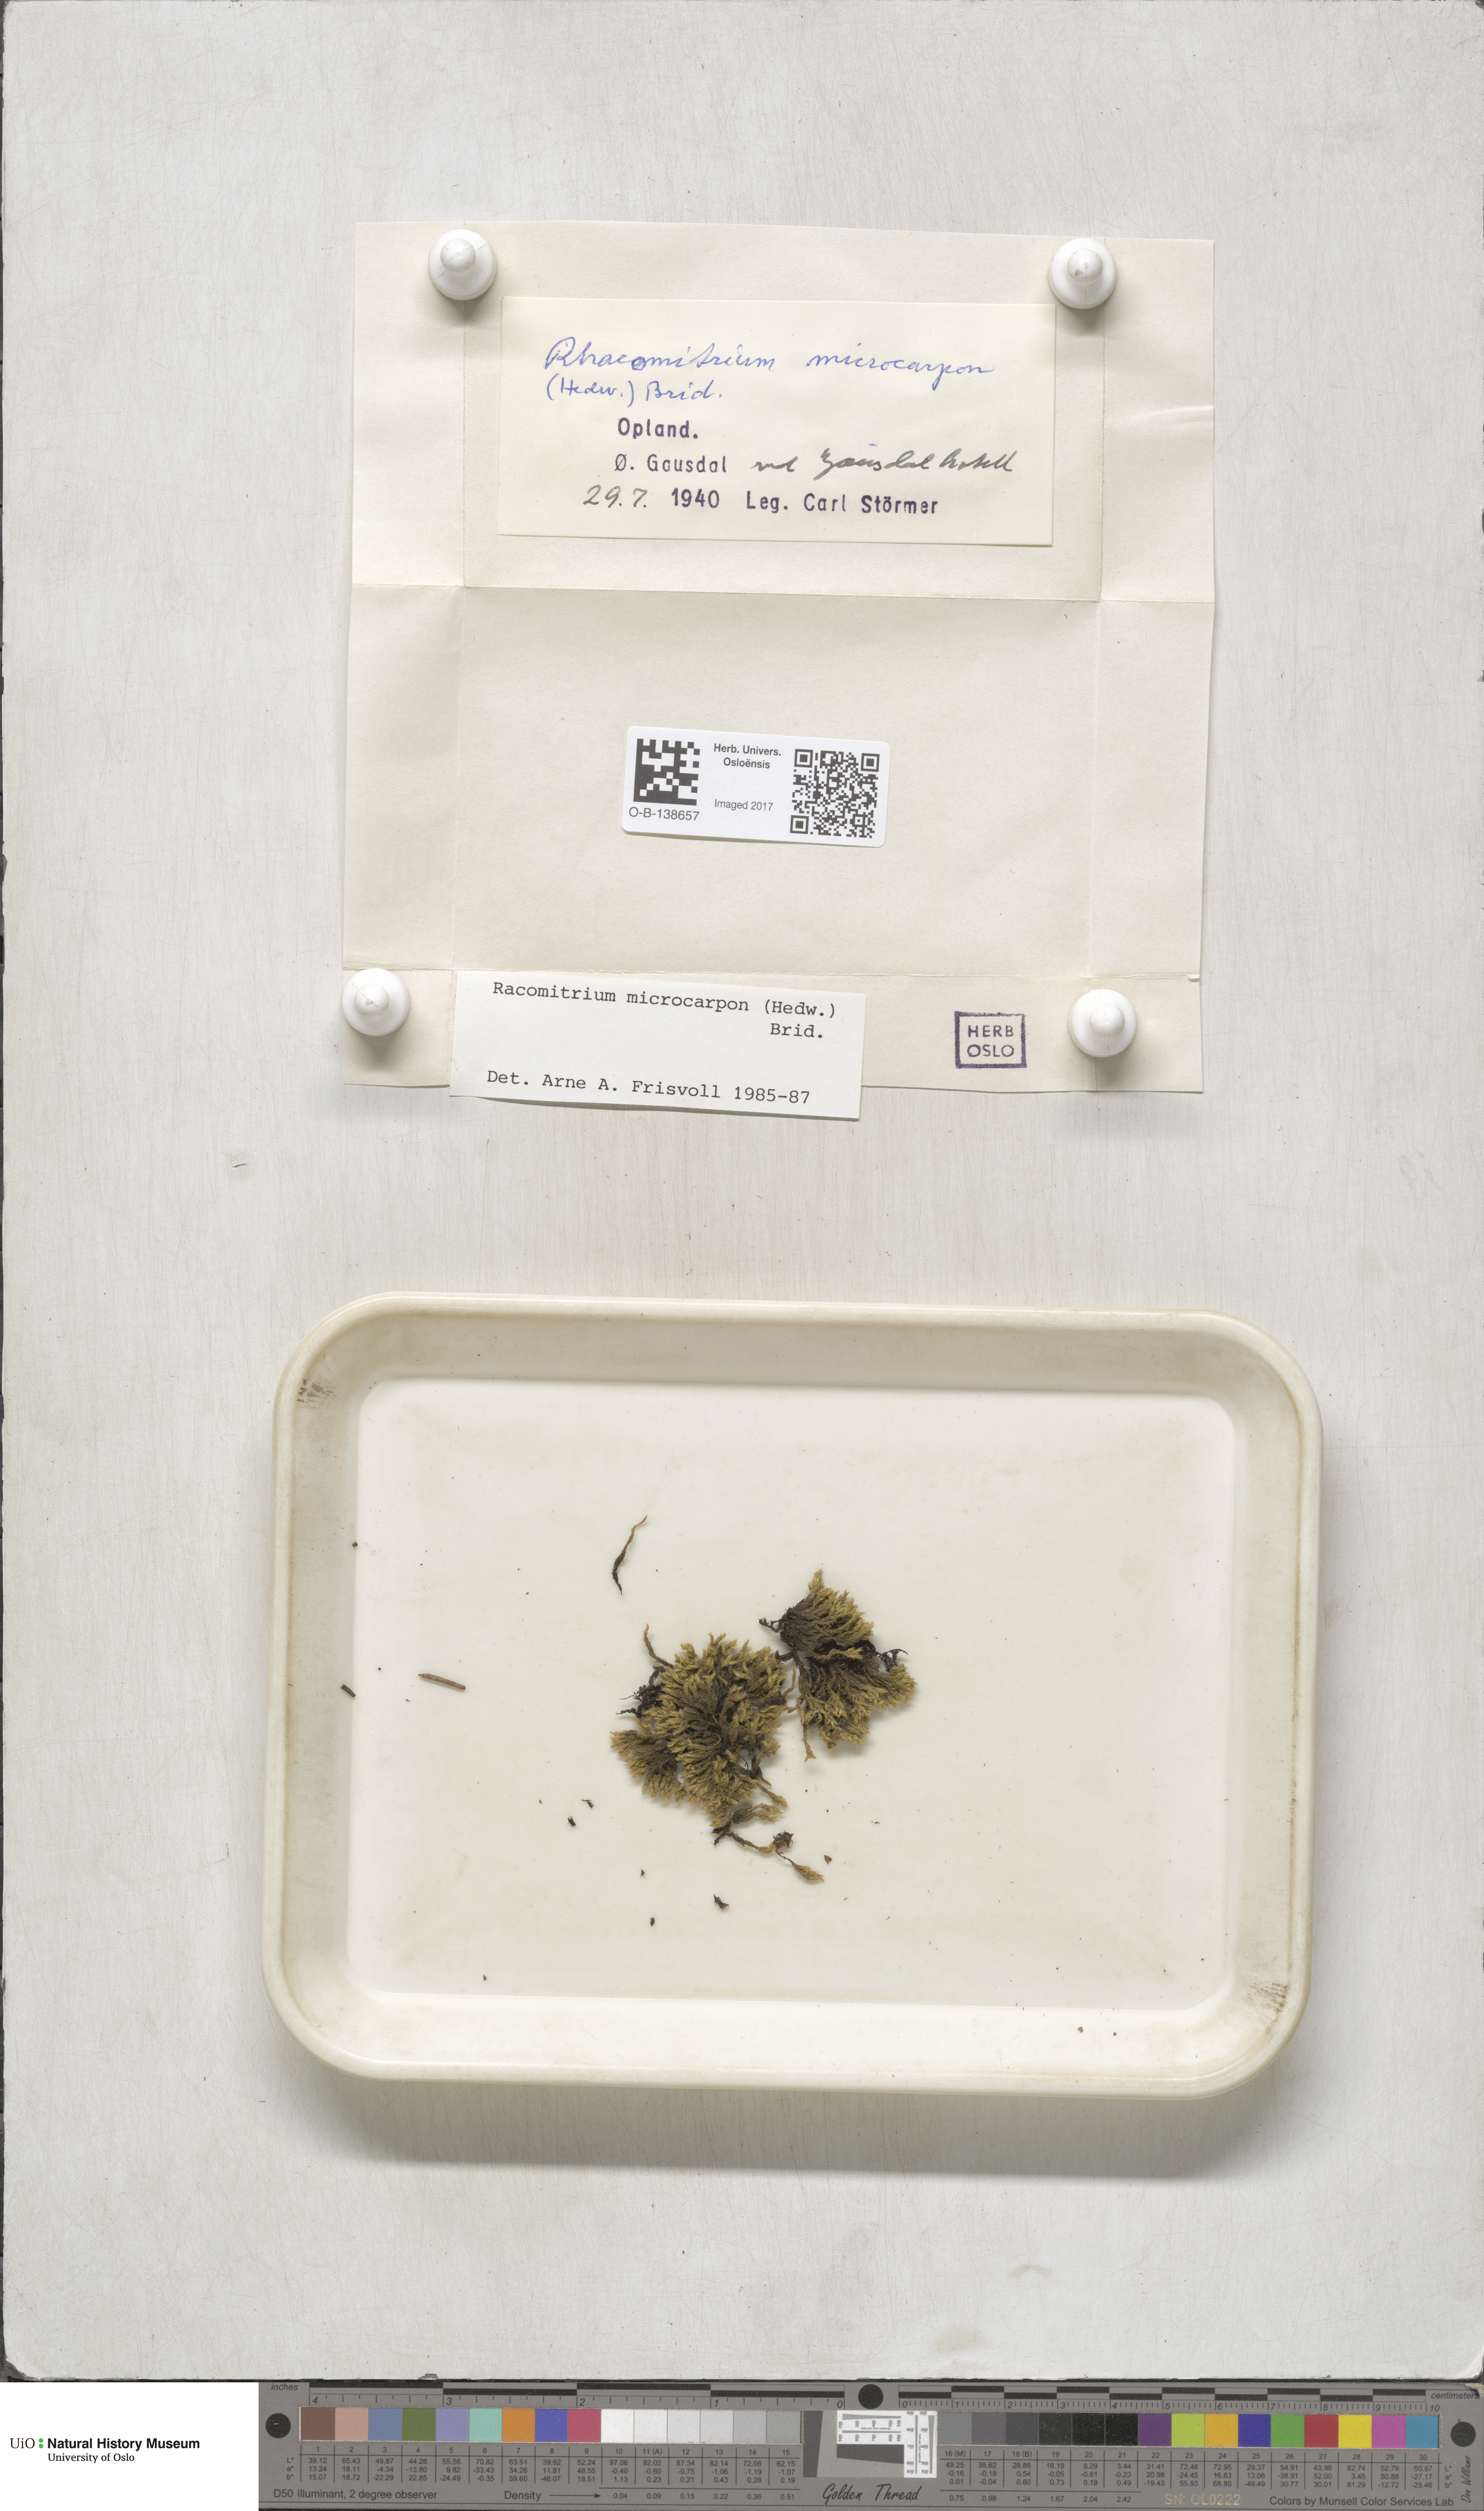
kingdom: Plantae
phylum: Bryophyta
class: Bryopsida
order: Grimmiales
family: Grimmiaceae
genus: Bucklandiella
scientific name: Bucklandiella microcarpos
